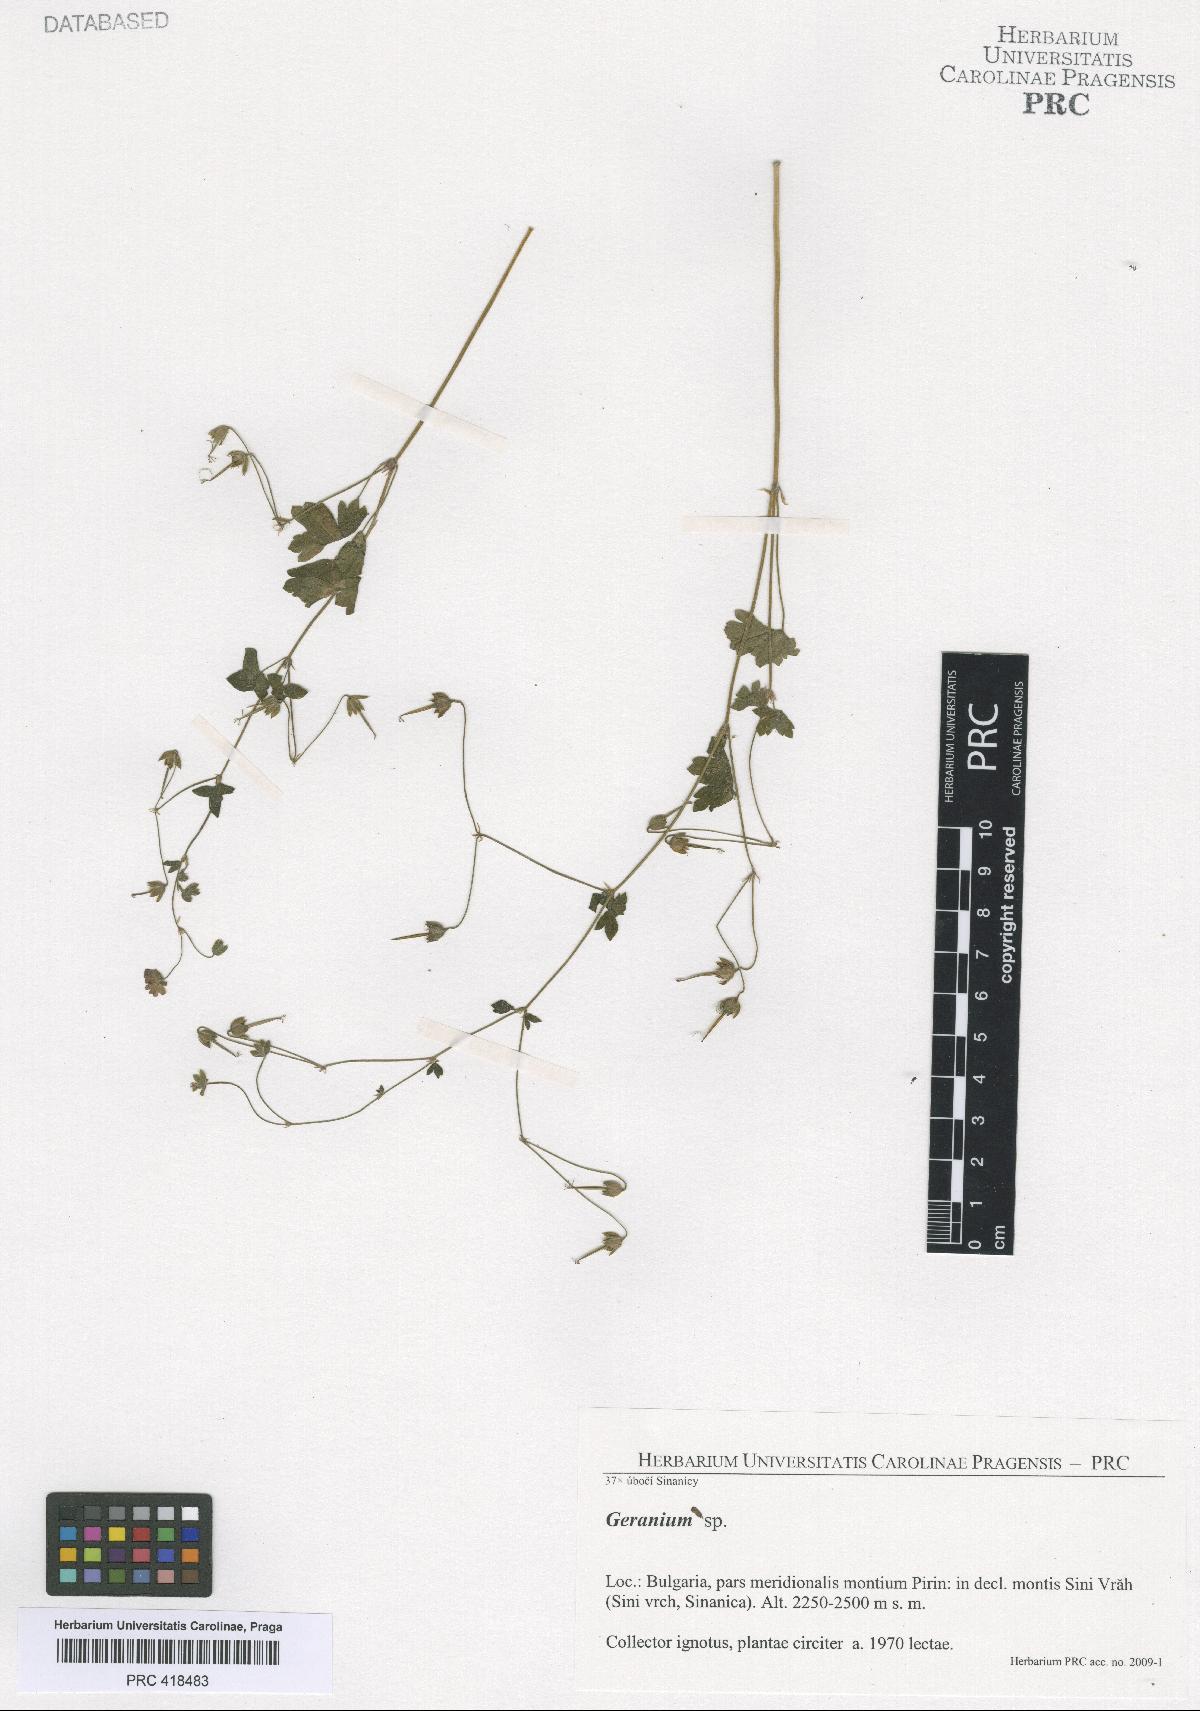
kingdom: Plantae
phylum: Tracheophyta
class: Magnoliopsida
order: Geraniales
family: Geraniaceae
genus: Geranium
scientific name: Geranium pyrenaicum
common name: Hedgerow crane's-bill
